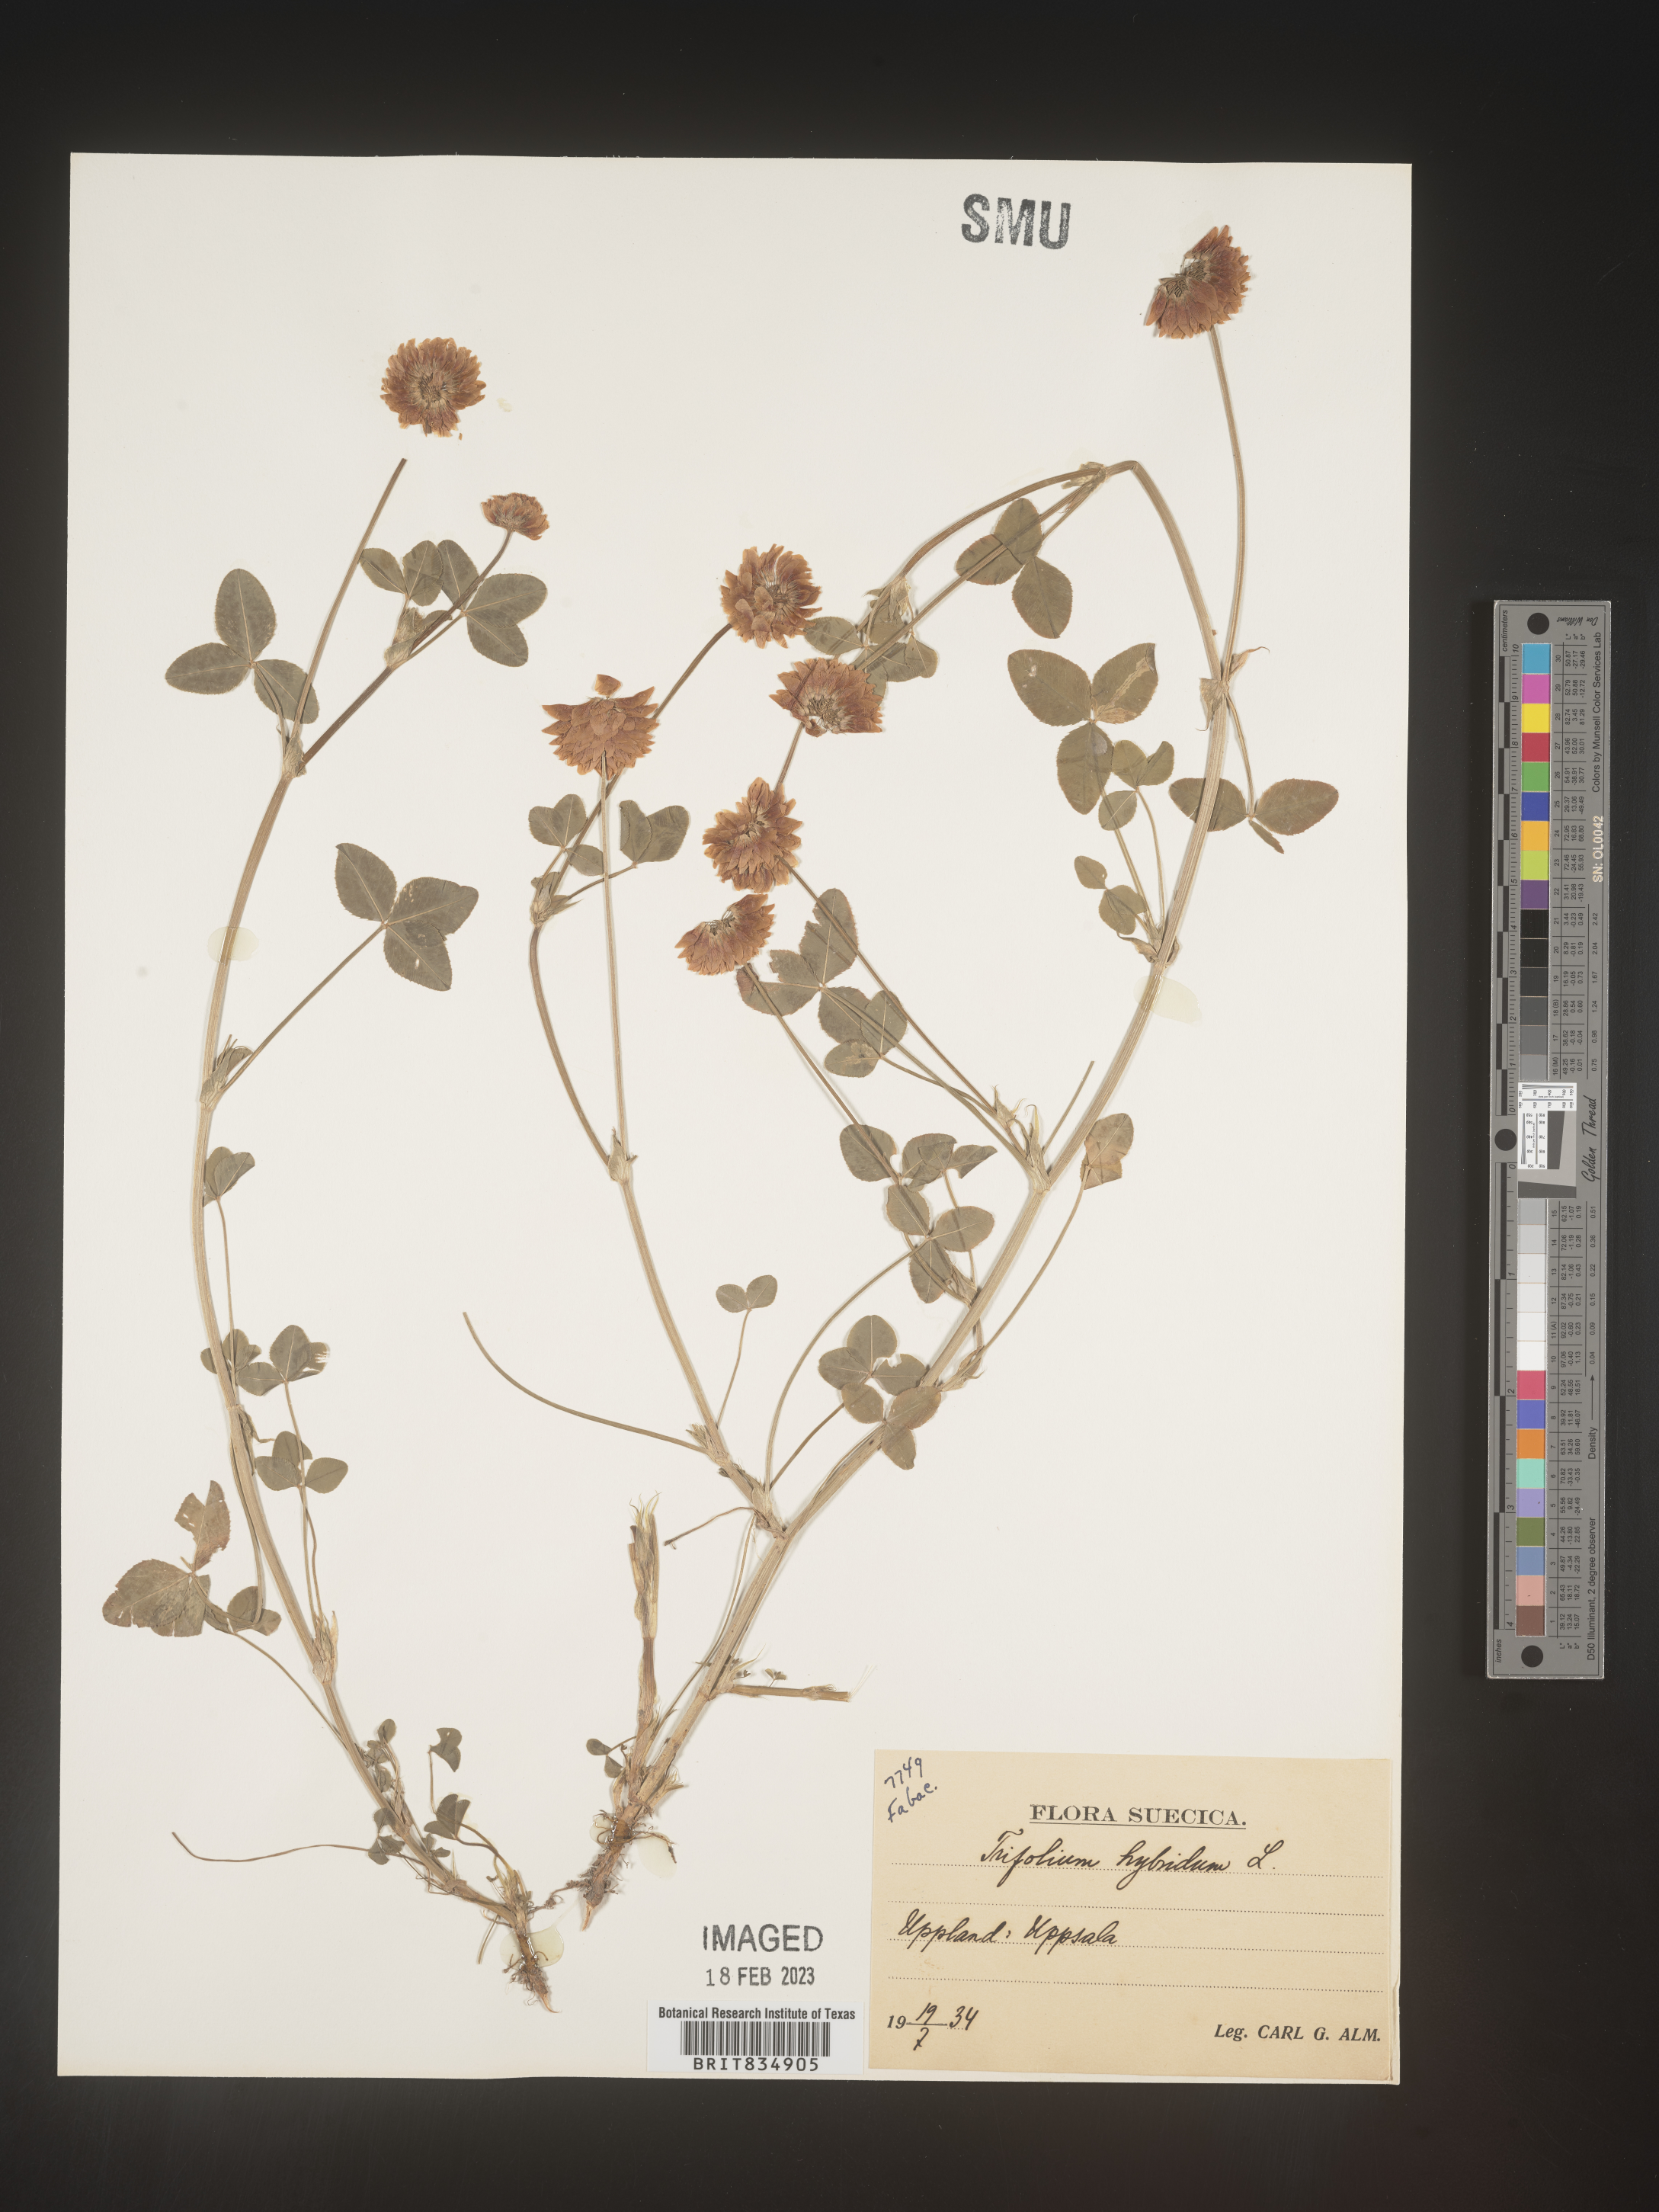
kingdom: Plantae
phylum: Tracheophyta
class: Magnoliopsida
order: Fabales
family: Fabaceae
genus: Trifolium
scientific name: Trifolium
